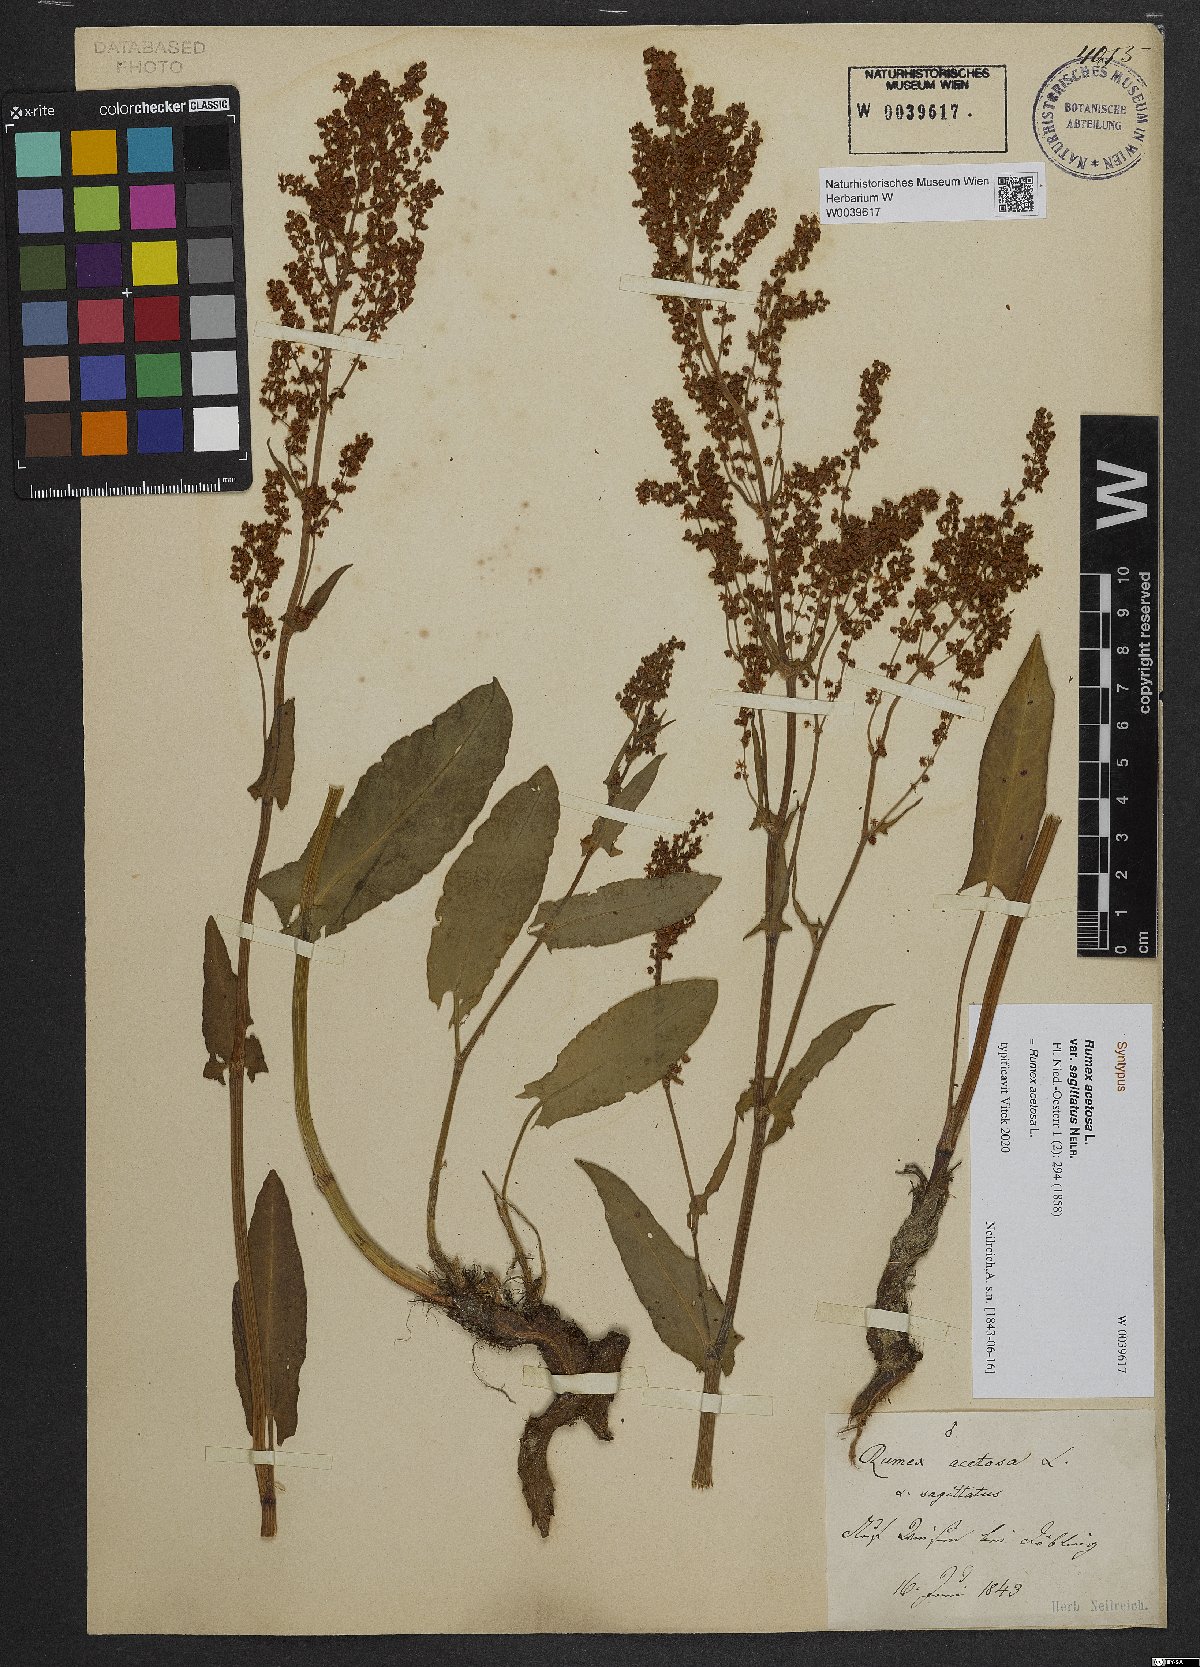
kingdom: Plantae
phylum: Tracheophyta
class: Magnoliopsida
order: Caryophyllales
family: Polygonaceae
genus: Rumex
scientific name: Rumex acetosa
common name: Garden sorrel
